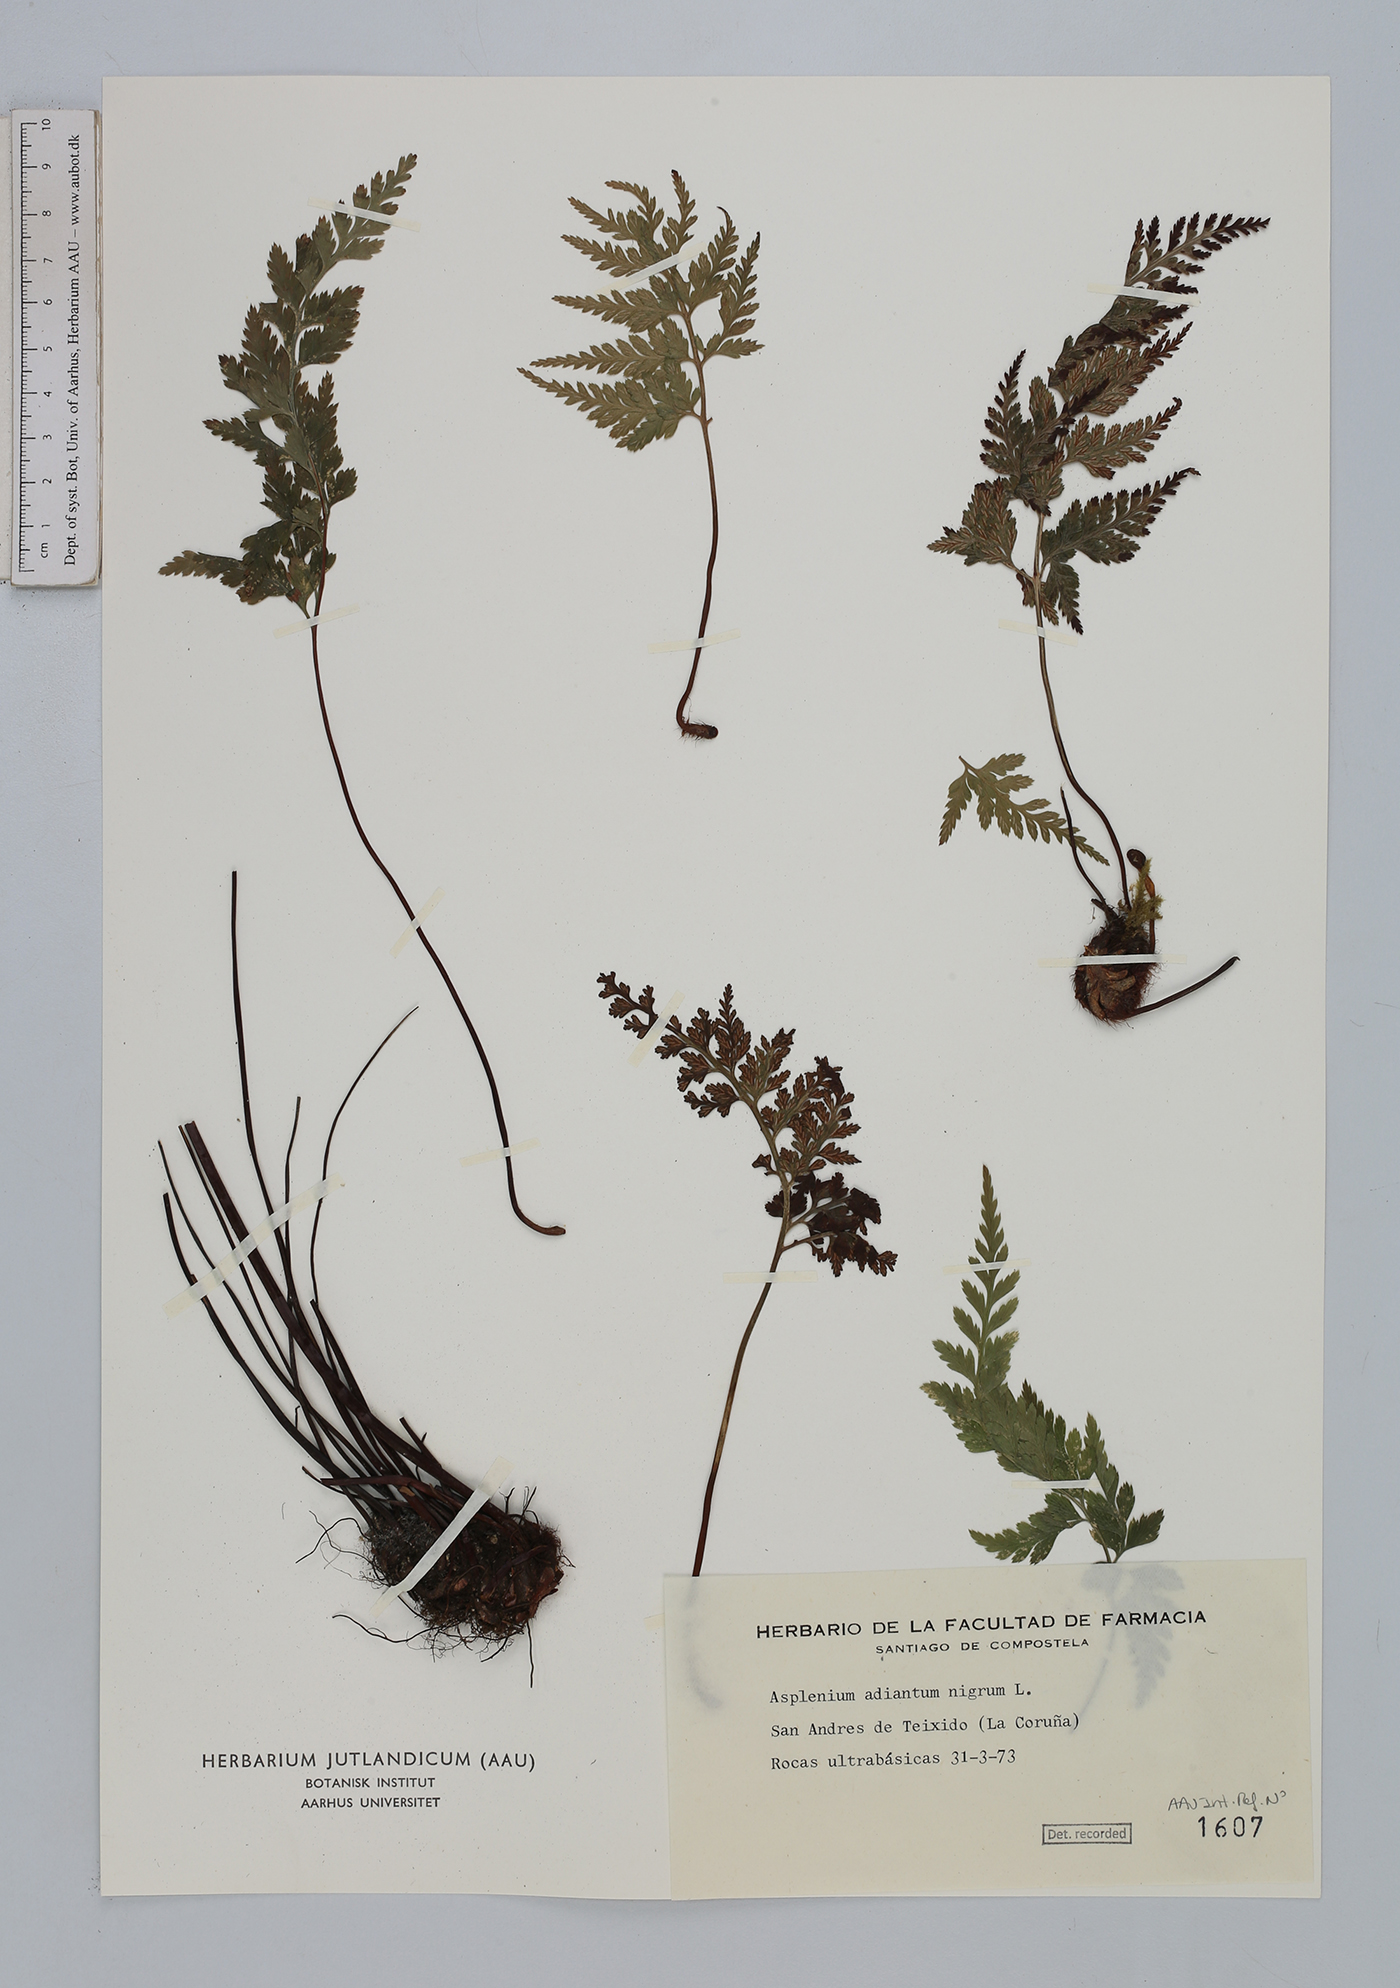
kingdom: Plantae
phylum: Tracheophyta
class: Polypodiopsida
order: Polypodiales
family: Aspleniaceae
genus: Asplenium
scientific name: Asplenium adiantum-nigrum
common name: Black spleenwort
